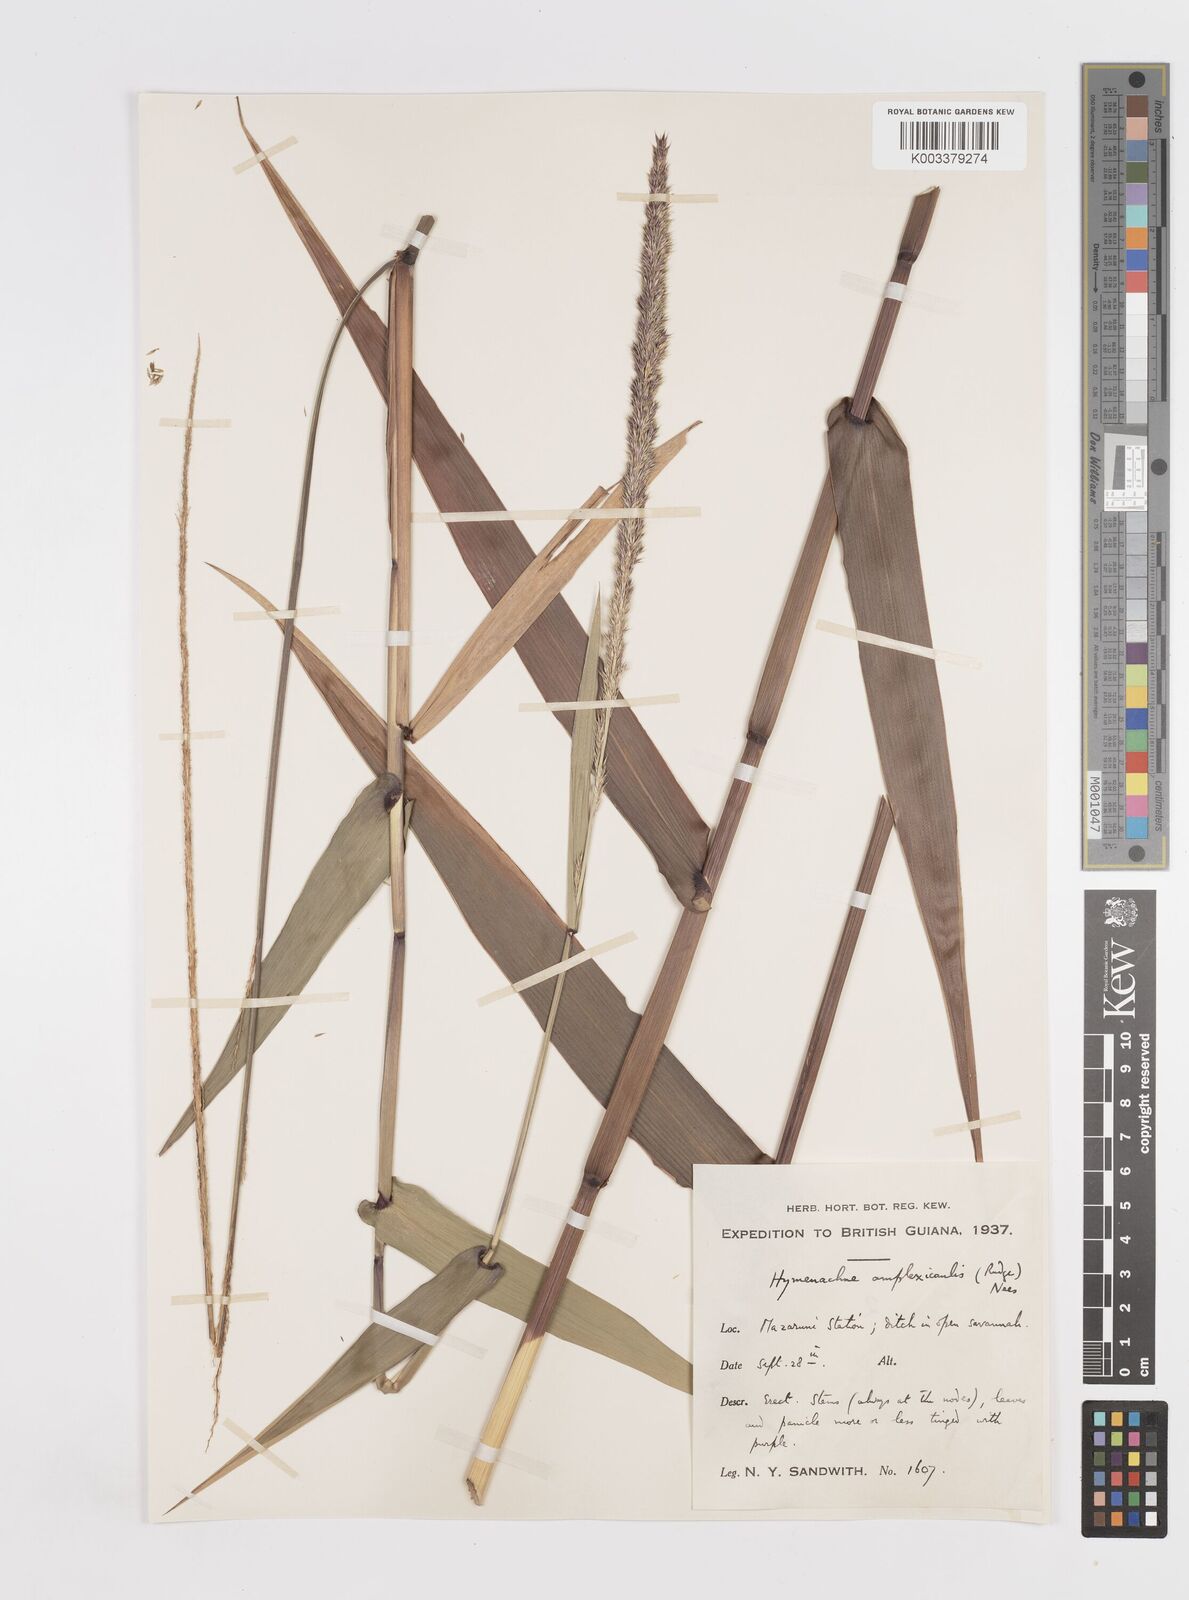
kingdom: Plantae
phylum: Tracheophyta
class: Liliopsida
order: Poales
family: Poaceae
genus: Hymenachne
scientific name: Hymenachne amplexicaulis
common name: Olive hymenachne
